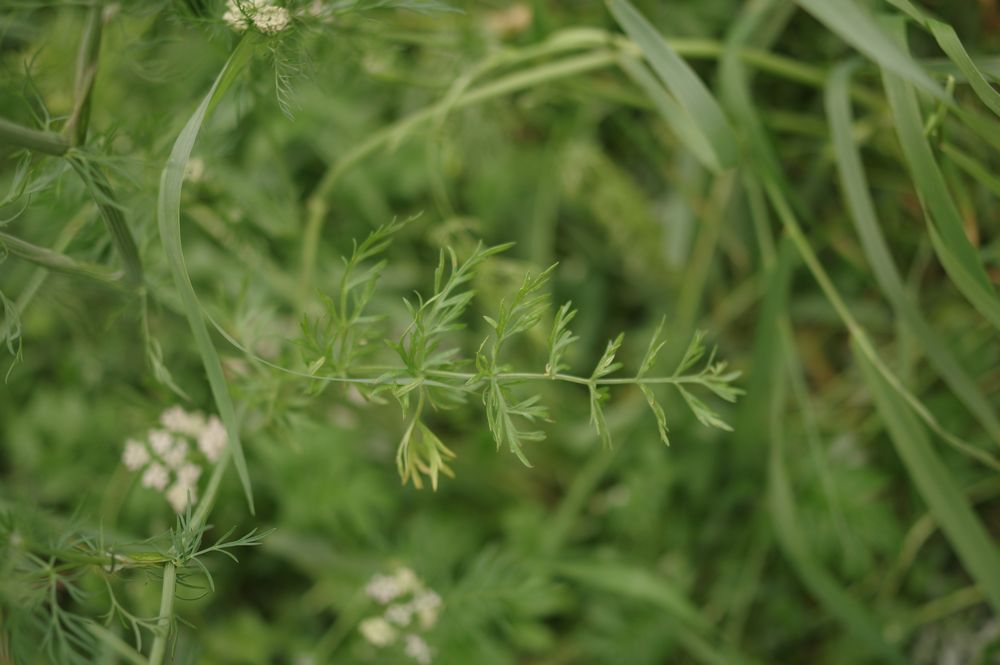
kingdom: Plantae
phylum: Tracheophyta
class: Magnoliopsida
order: Apiales
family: Apiaceae
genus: Carum
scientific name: Carum carvi
